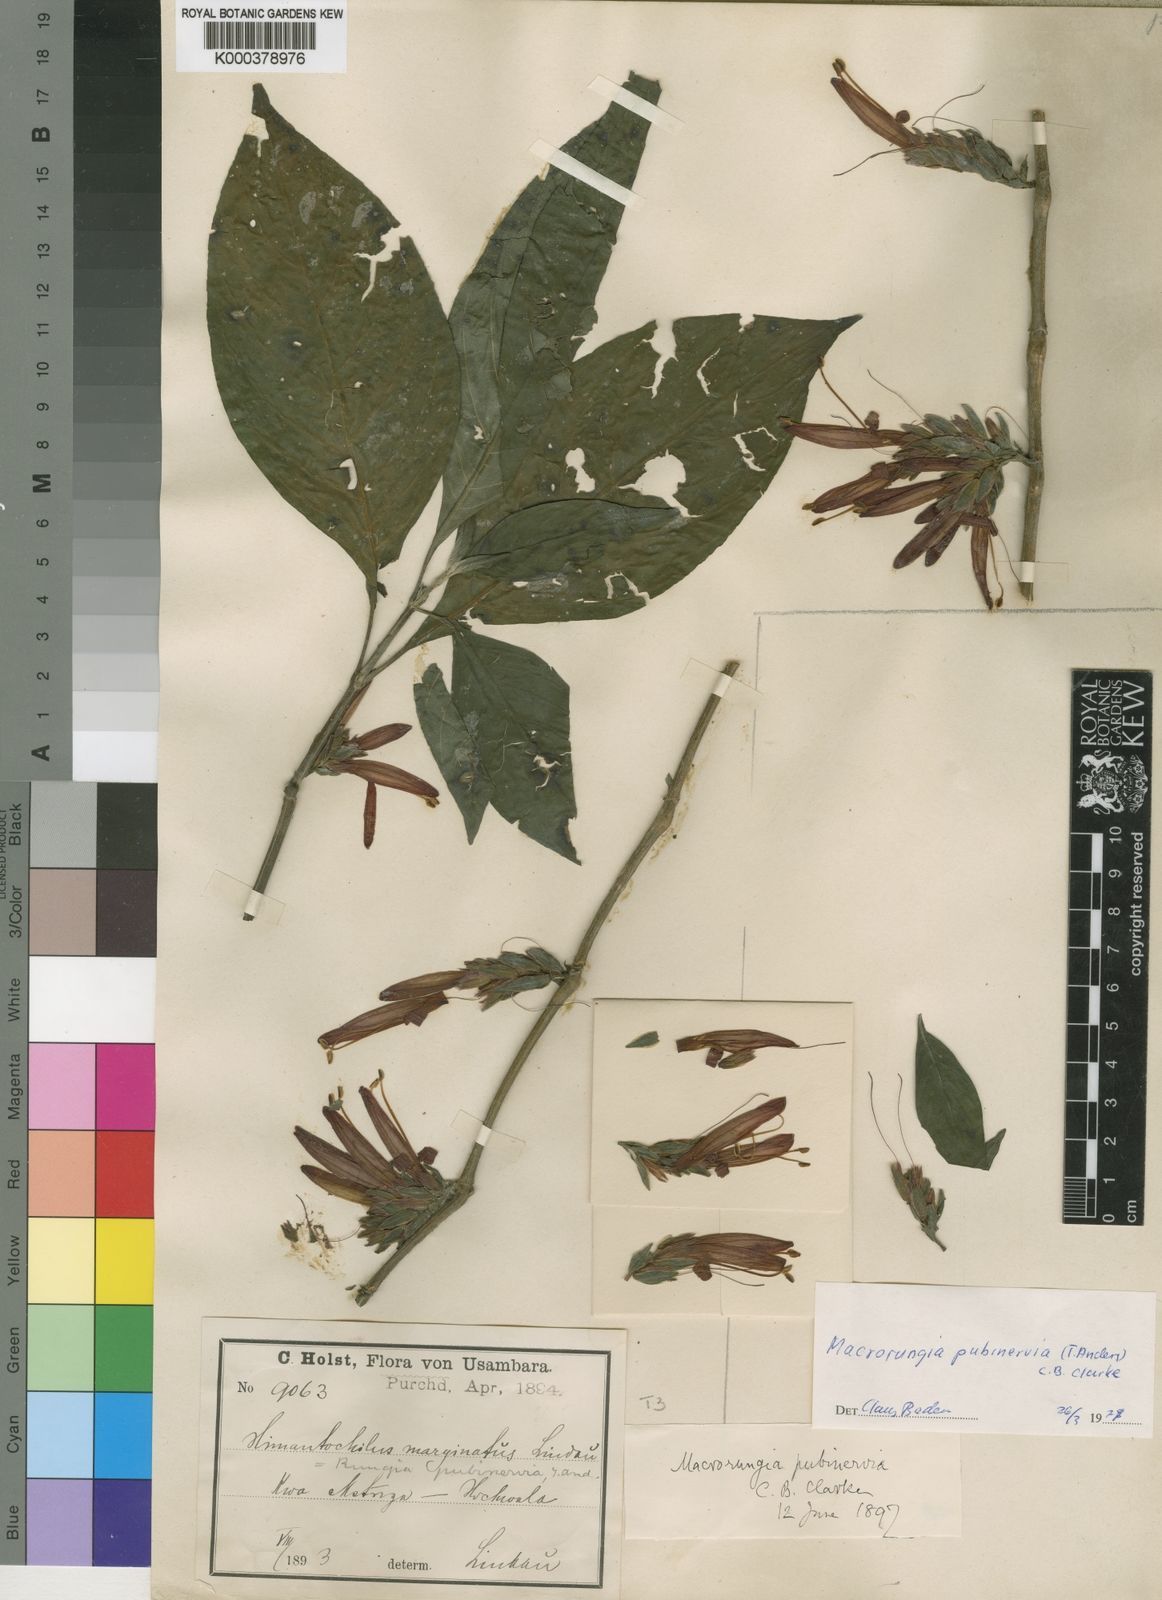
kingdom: Plantae
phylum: Tracheophyta
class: Magnoliopsida
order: Lamiales
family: Acanthaceae
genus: Metarungia
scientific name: Metarungia pubinervia
